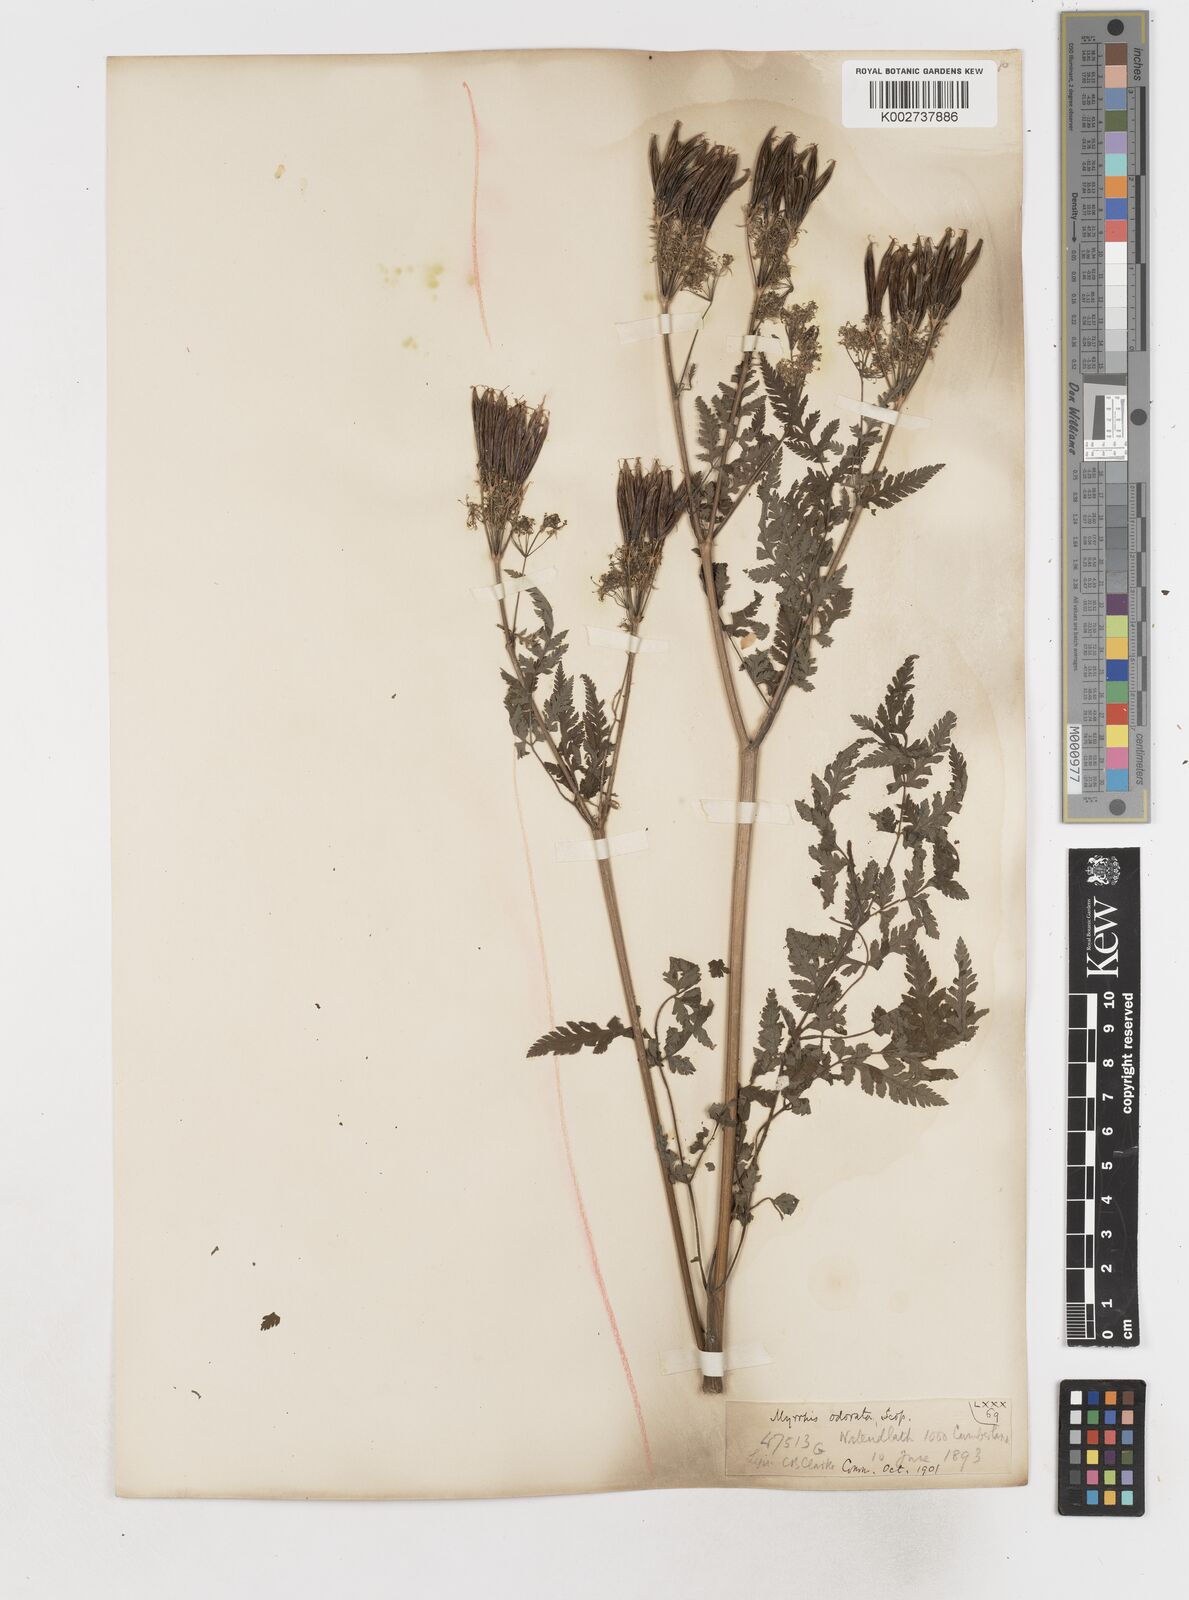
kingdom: Plantae
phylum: Tracheophyta
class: Magnoliopsida
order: Apiales
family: Apiaceae
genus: Myrrhis
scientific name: Myrrhis odorata
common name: Sweet cicely
